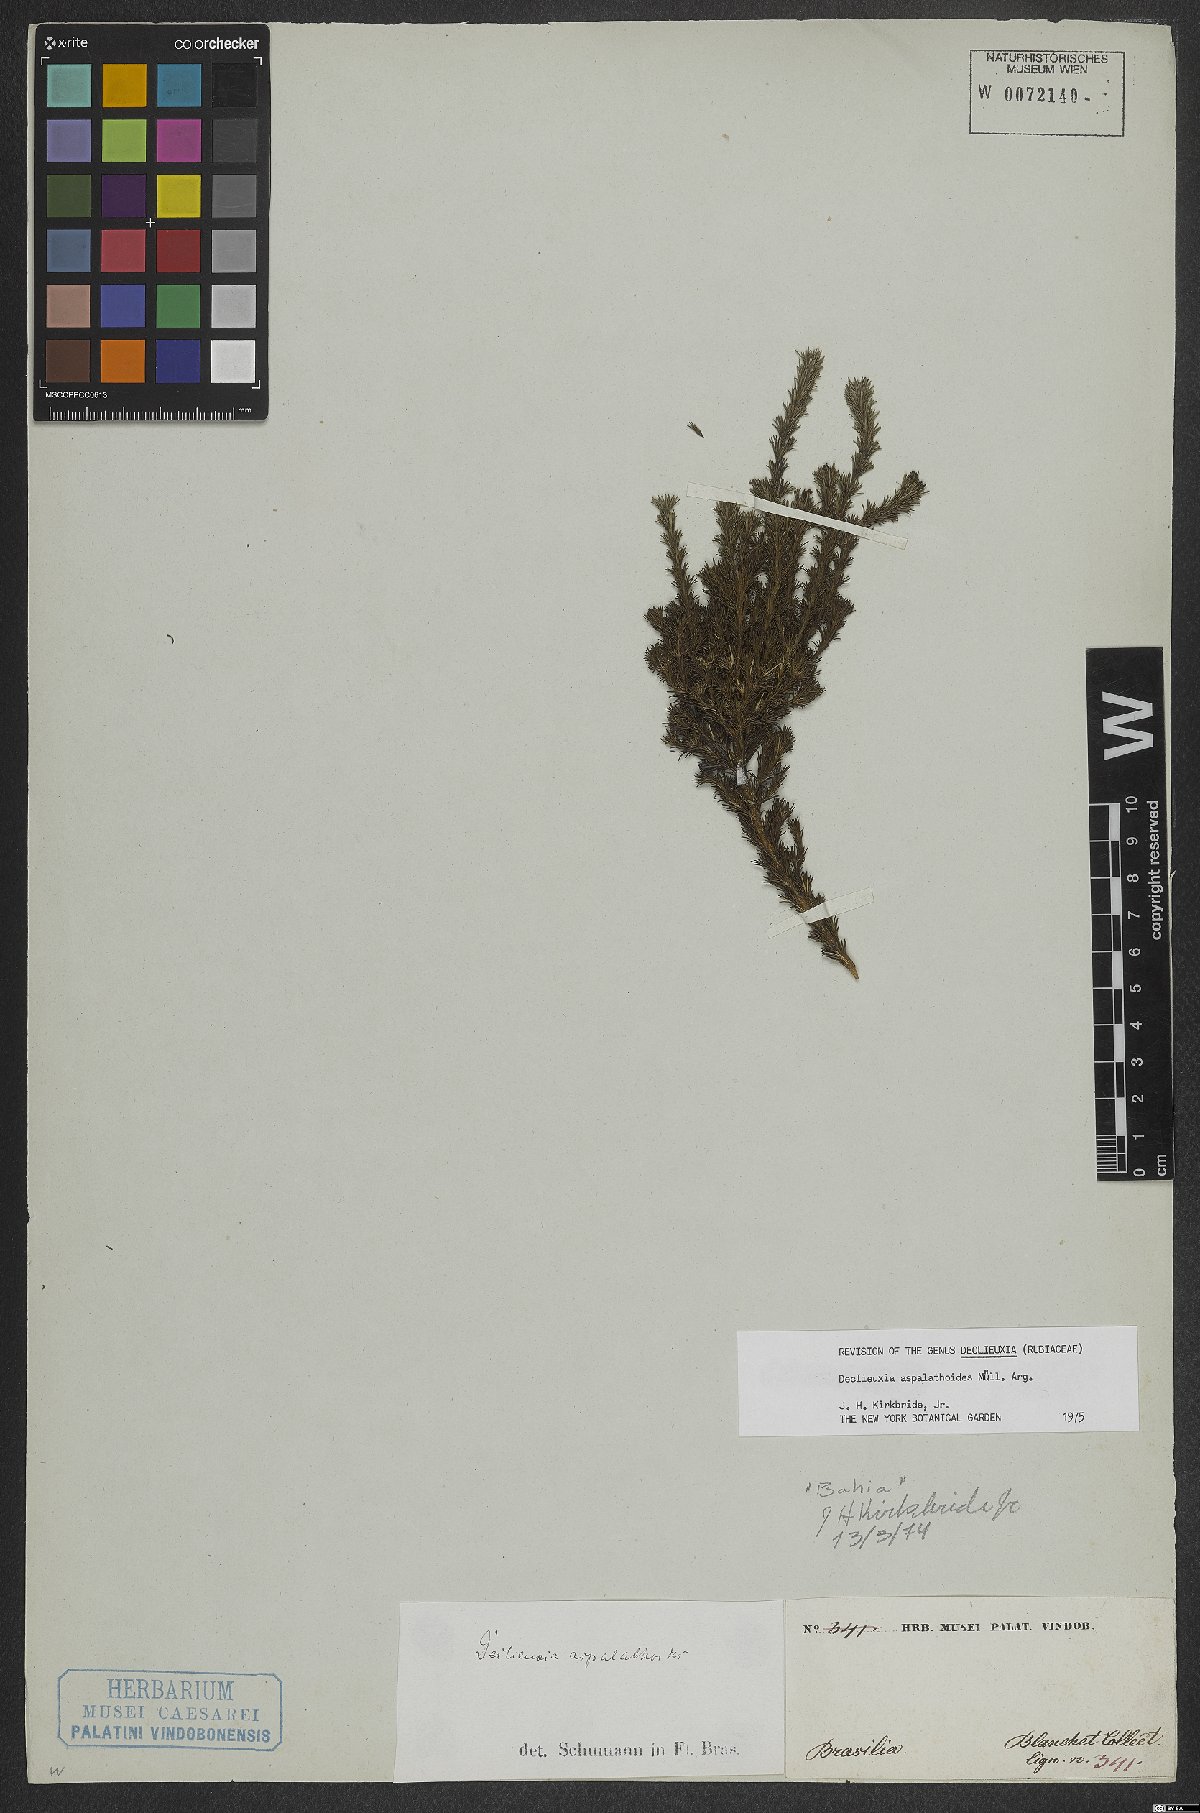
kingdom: Plantae
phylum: Tracheophyta
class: Magnoliopsida
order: Gentianales
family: Rubiaceae
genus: Declieuxia
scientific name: Declieuxia aspalathoides
